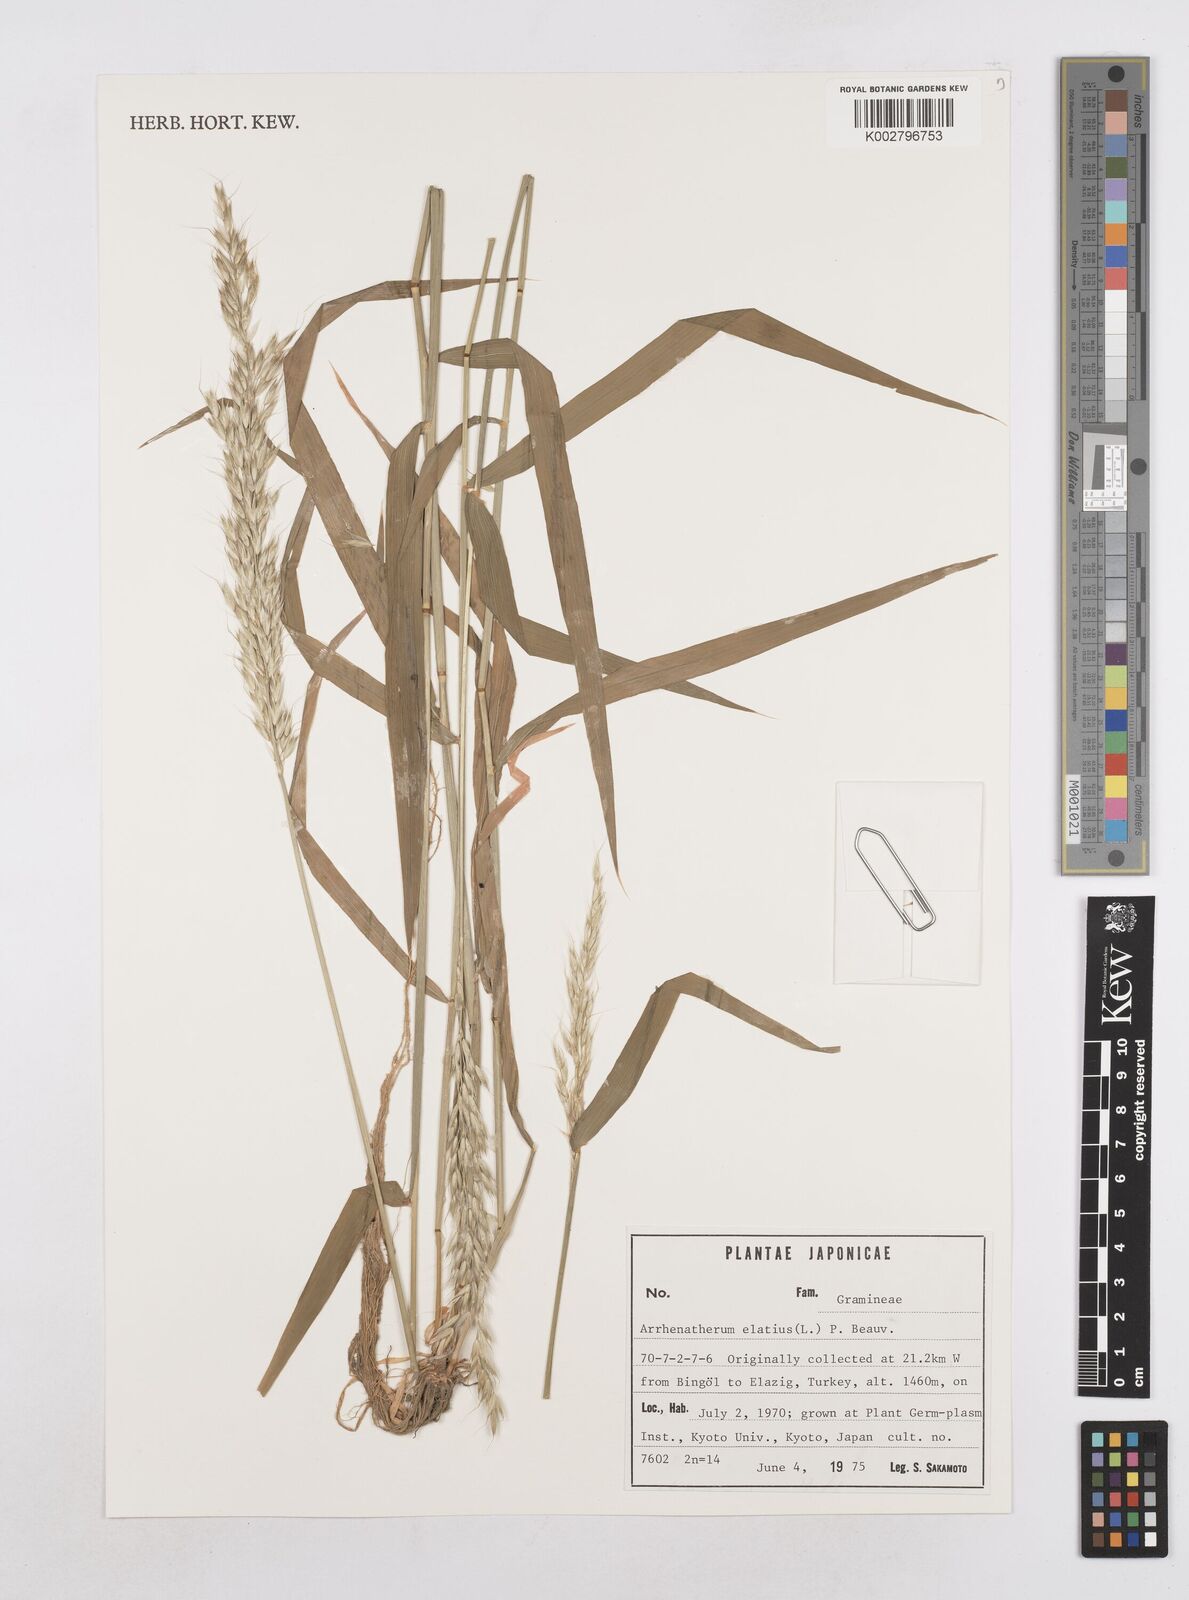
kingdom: Plantae
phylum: Tracheophyta
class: Liliopsida
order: Poales
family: Poaceae
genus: Arrhenatherum
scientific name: Arrhenatherum elatius
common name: Tall oatgrass
